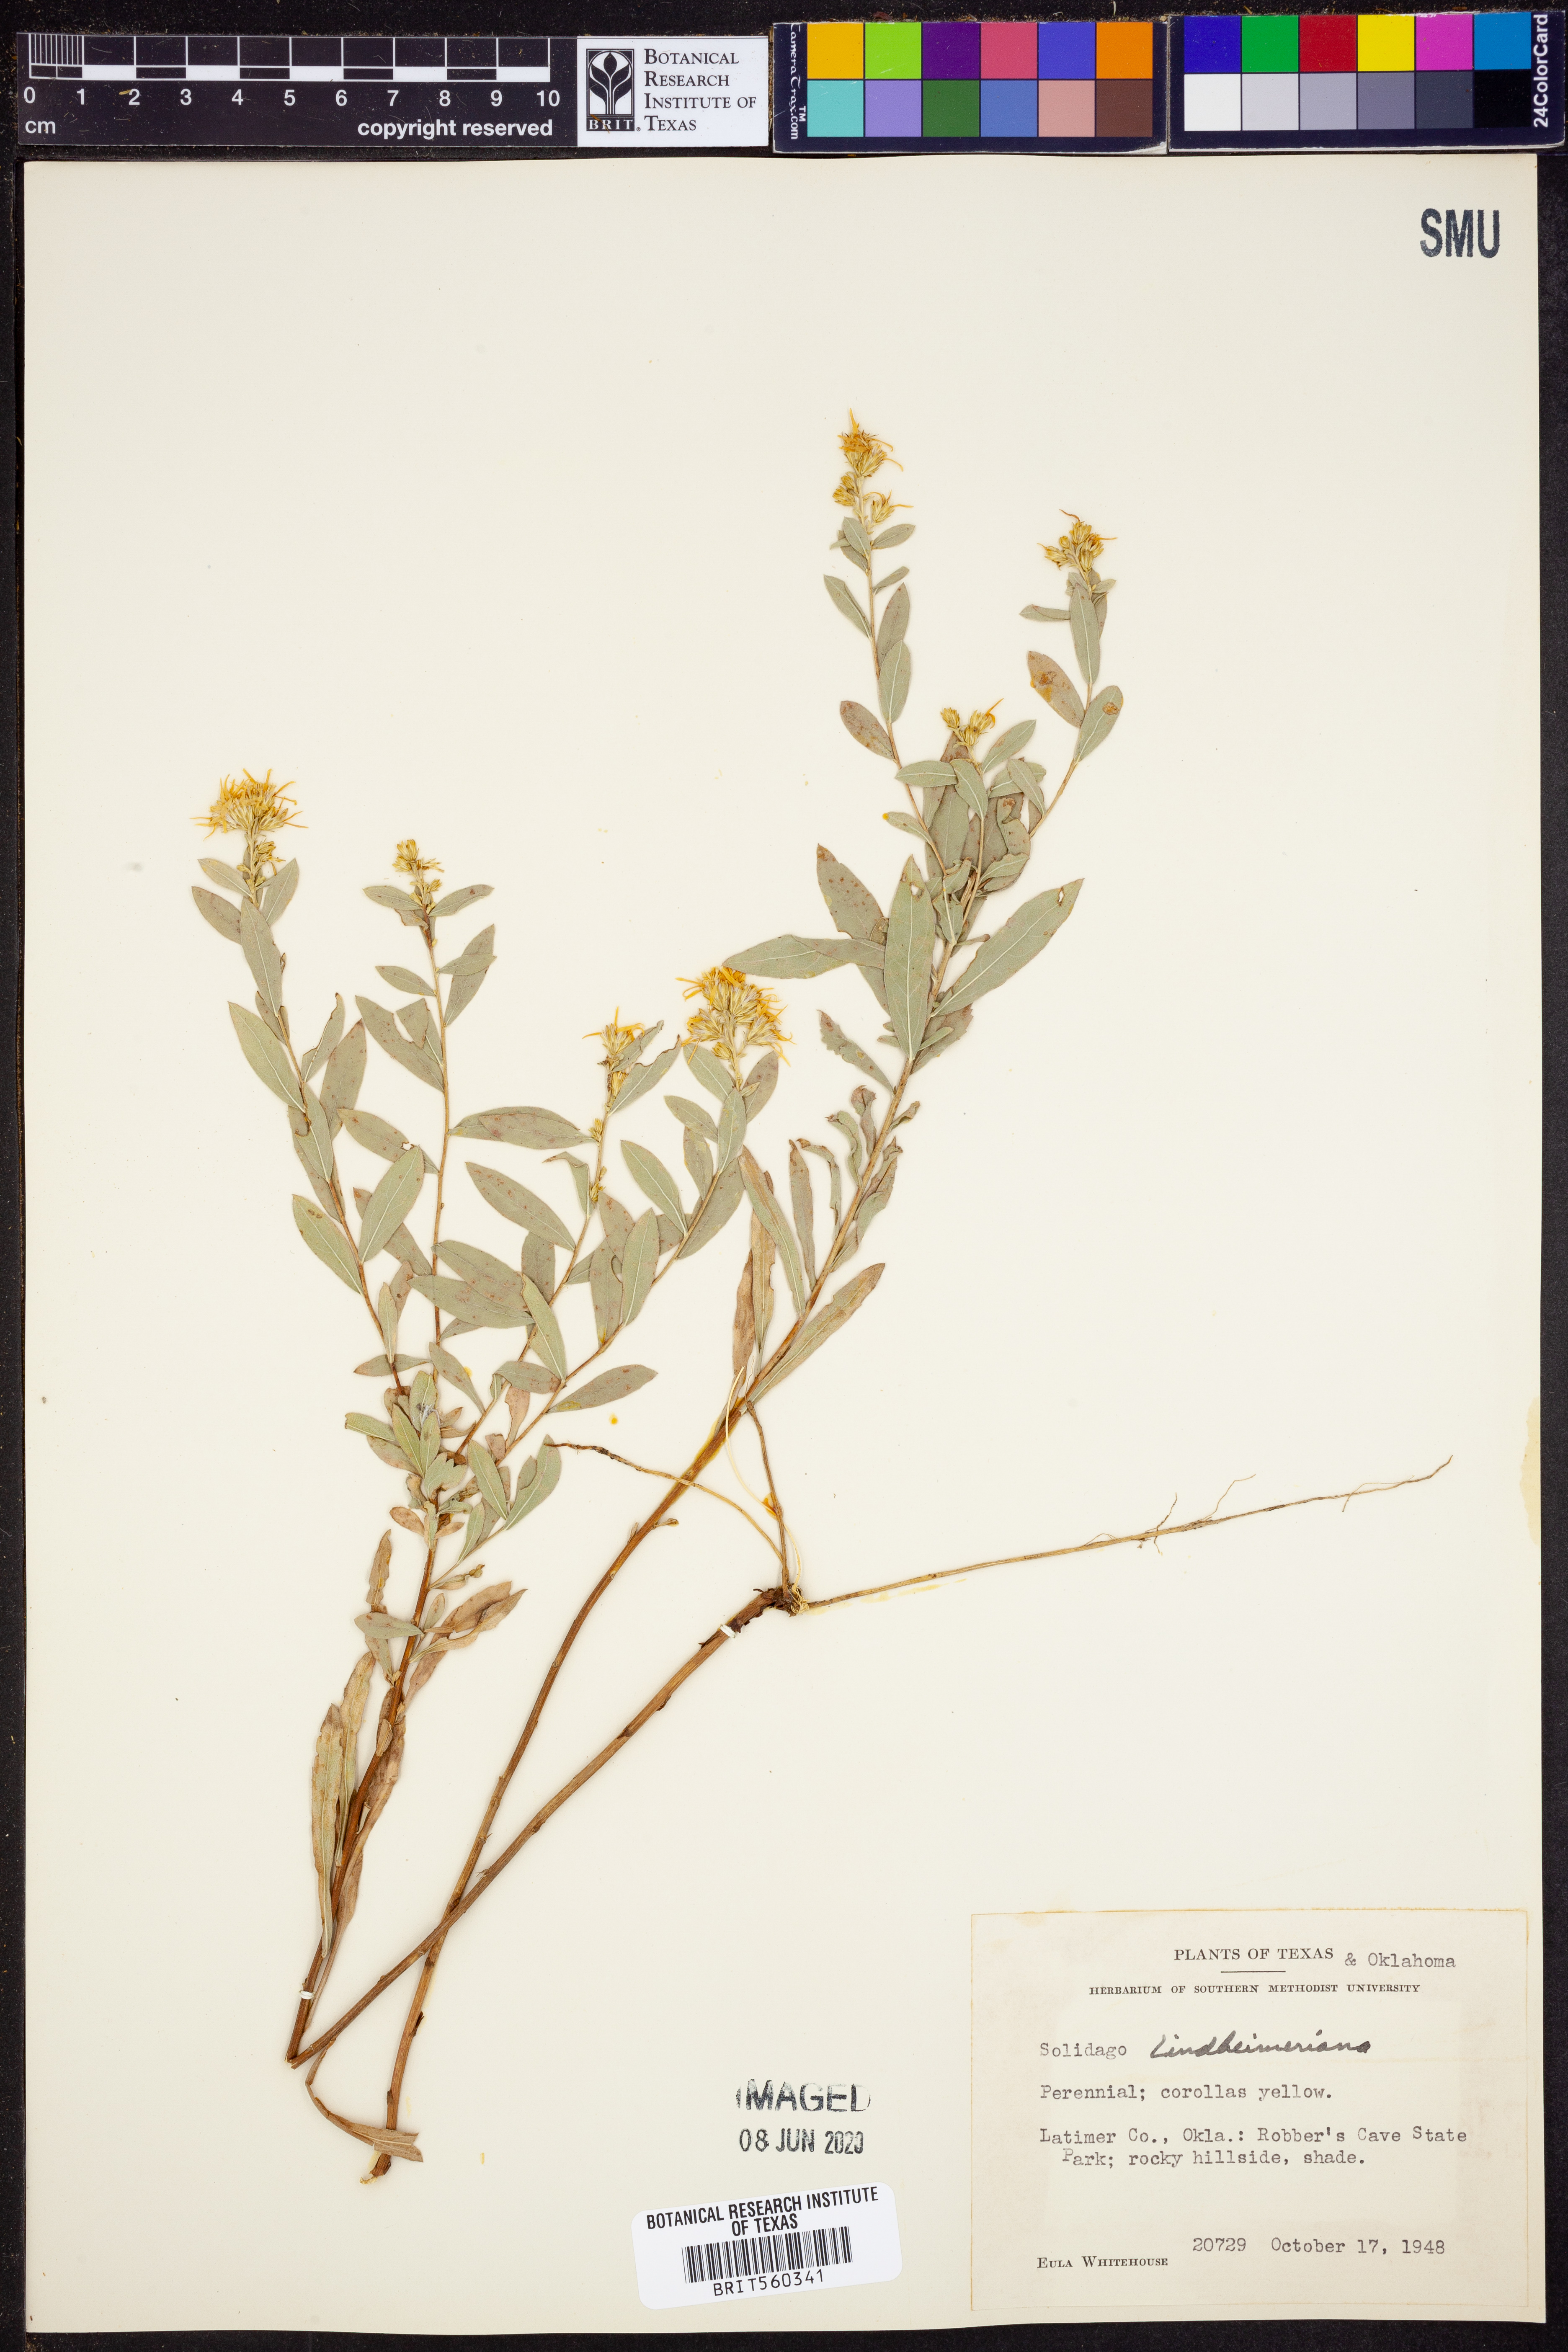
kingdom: Plantae
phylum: Tracheophyta
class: Magnoliopsida
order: Asterales
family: Asteraceae
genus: Solidago
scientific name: Solidago petiolaris
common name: Downy ragged goldenrod
